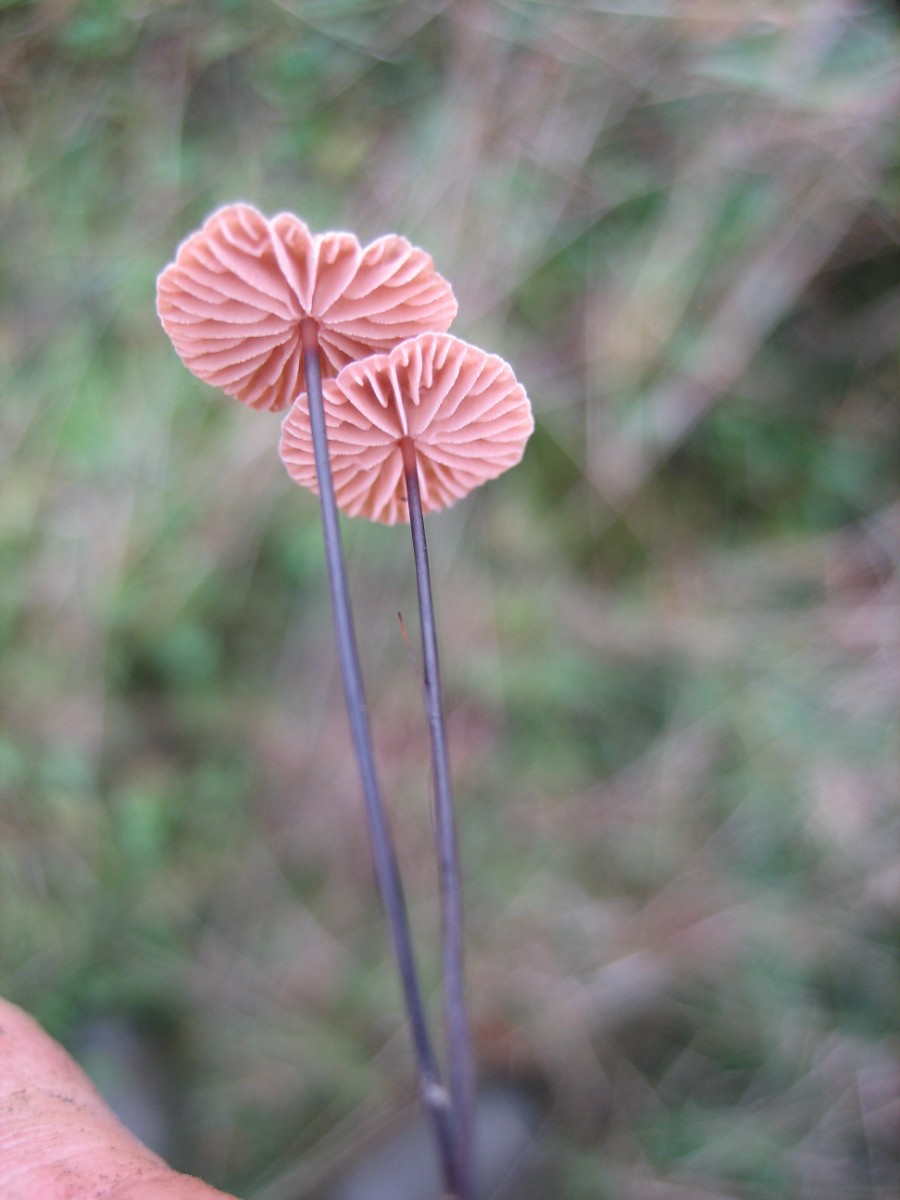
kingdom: Fungi
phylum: Basidiomycota
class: Agaricomycetes
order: Agaricales
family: Omphalotaceae
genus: Gymnopus
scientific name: Gymnopus androsaceus
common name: trådstokket fladhat
